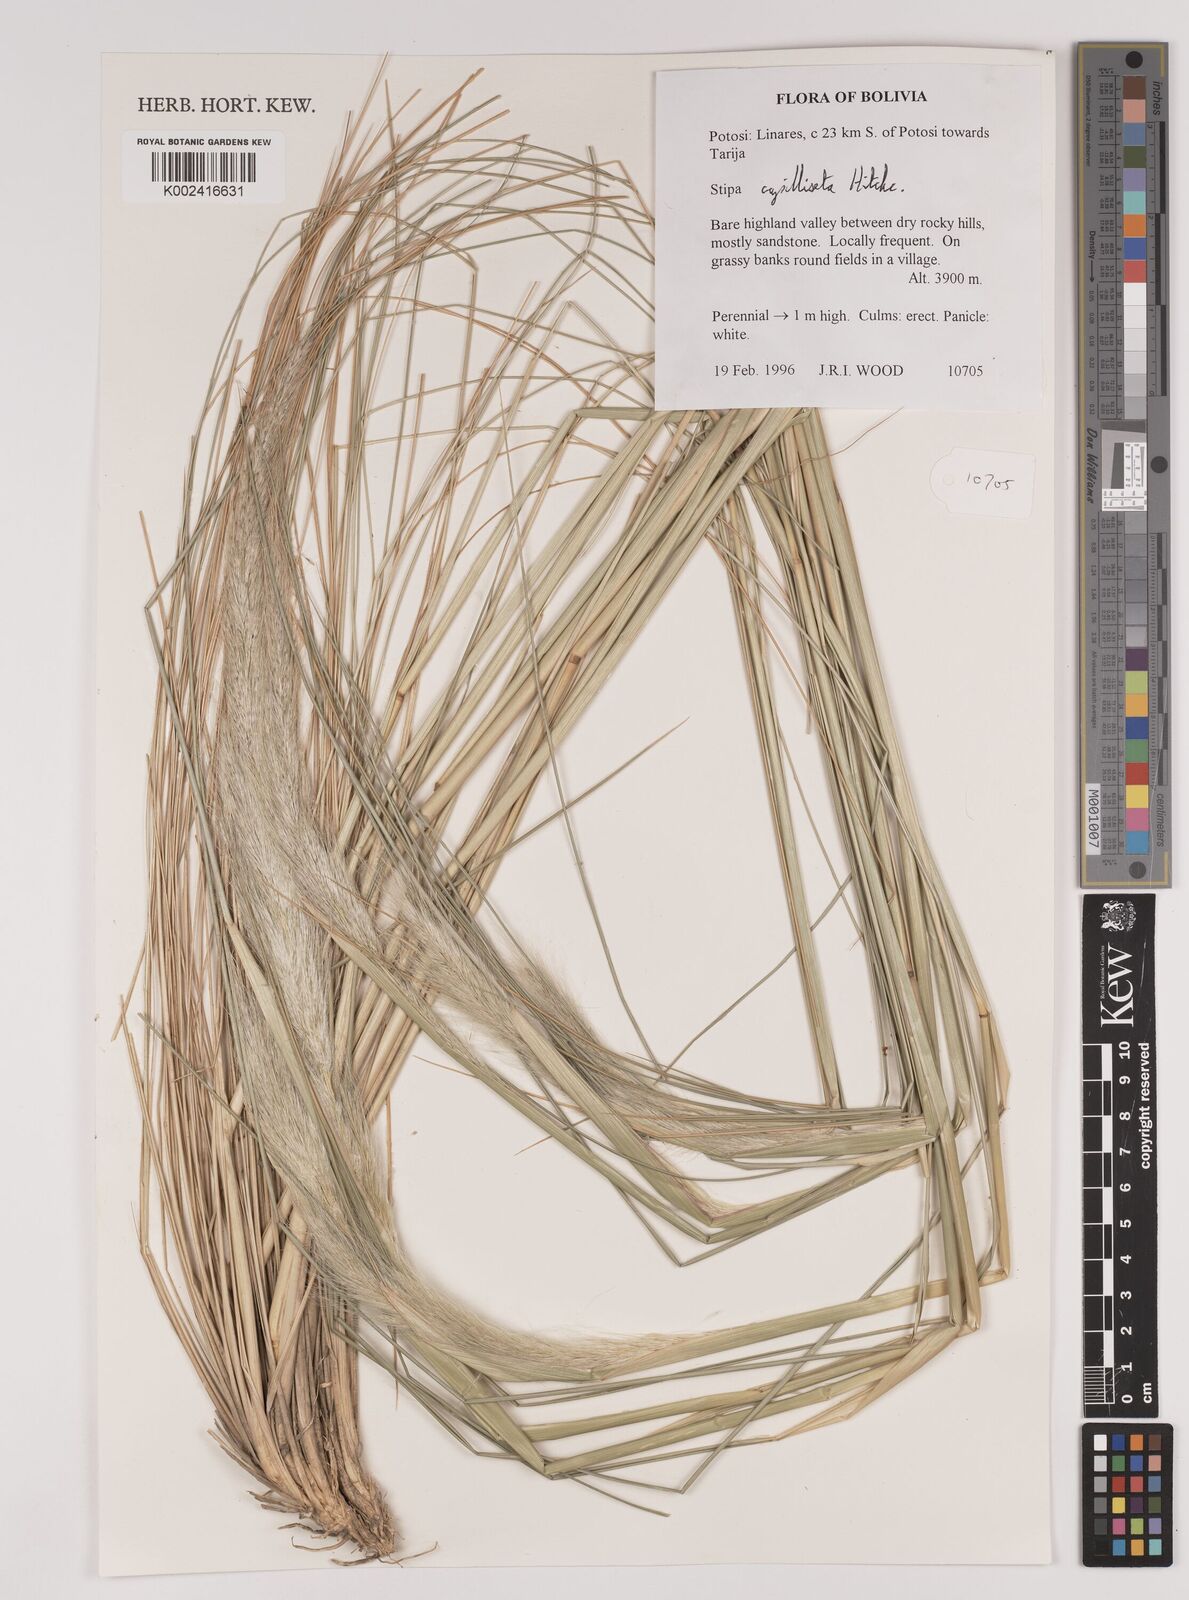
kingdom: Plantae
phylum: Tracheophyta
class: Liliopsida
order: Poales
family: Poaceae
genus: Jarava
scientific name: Jarava leptostachya
